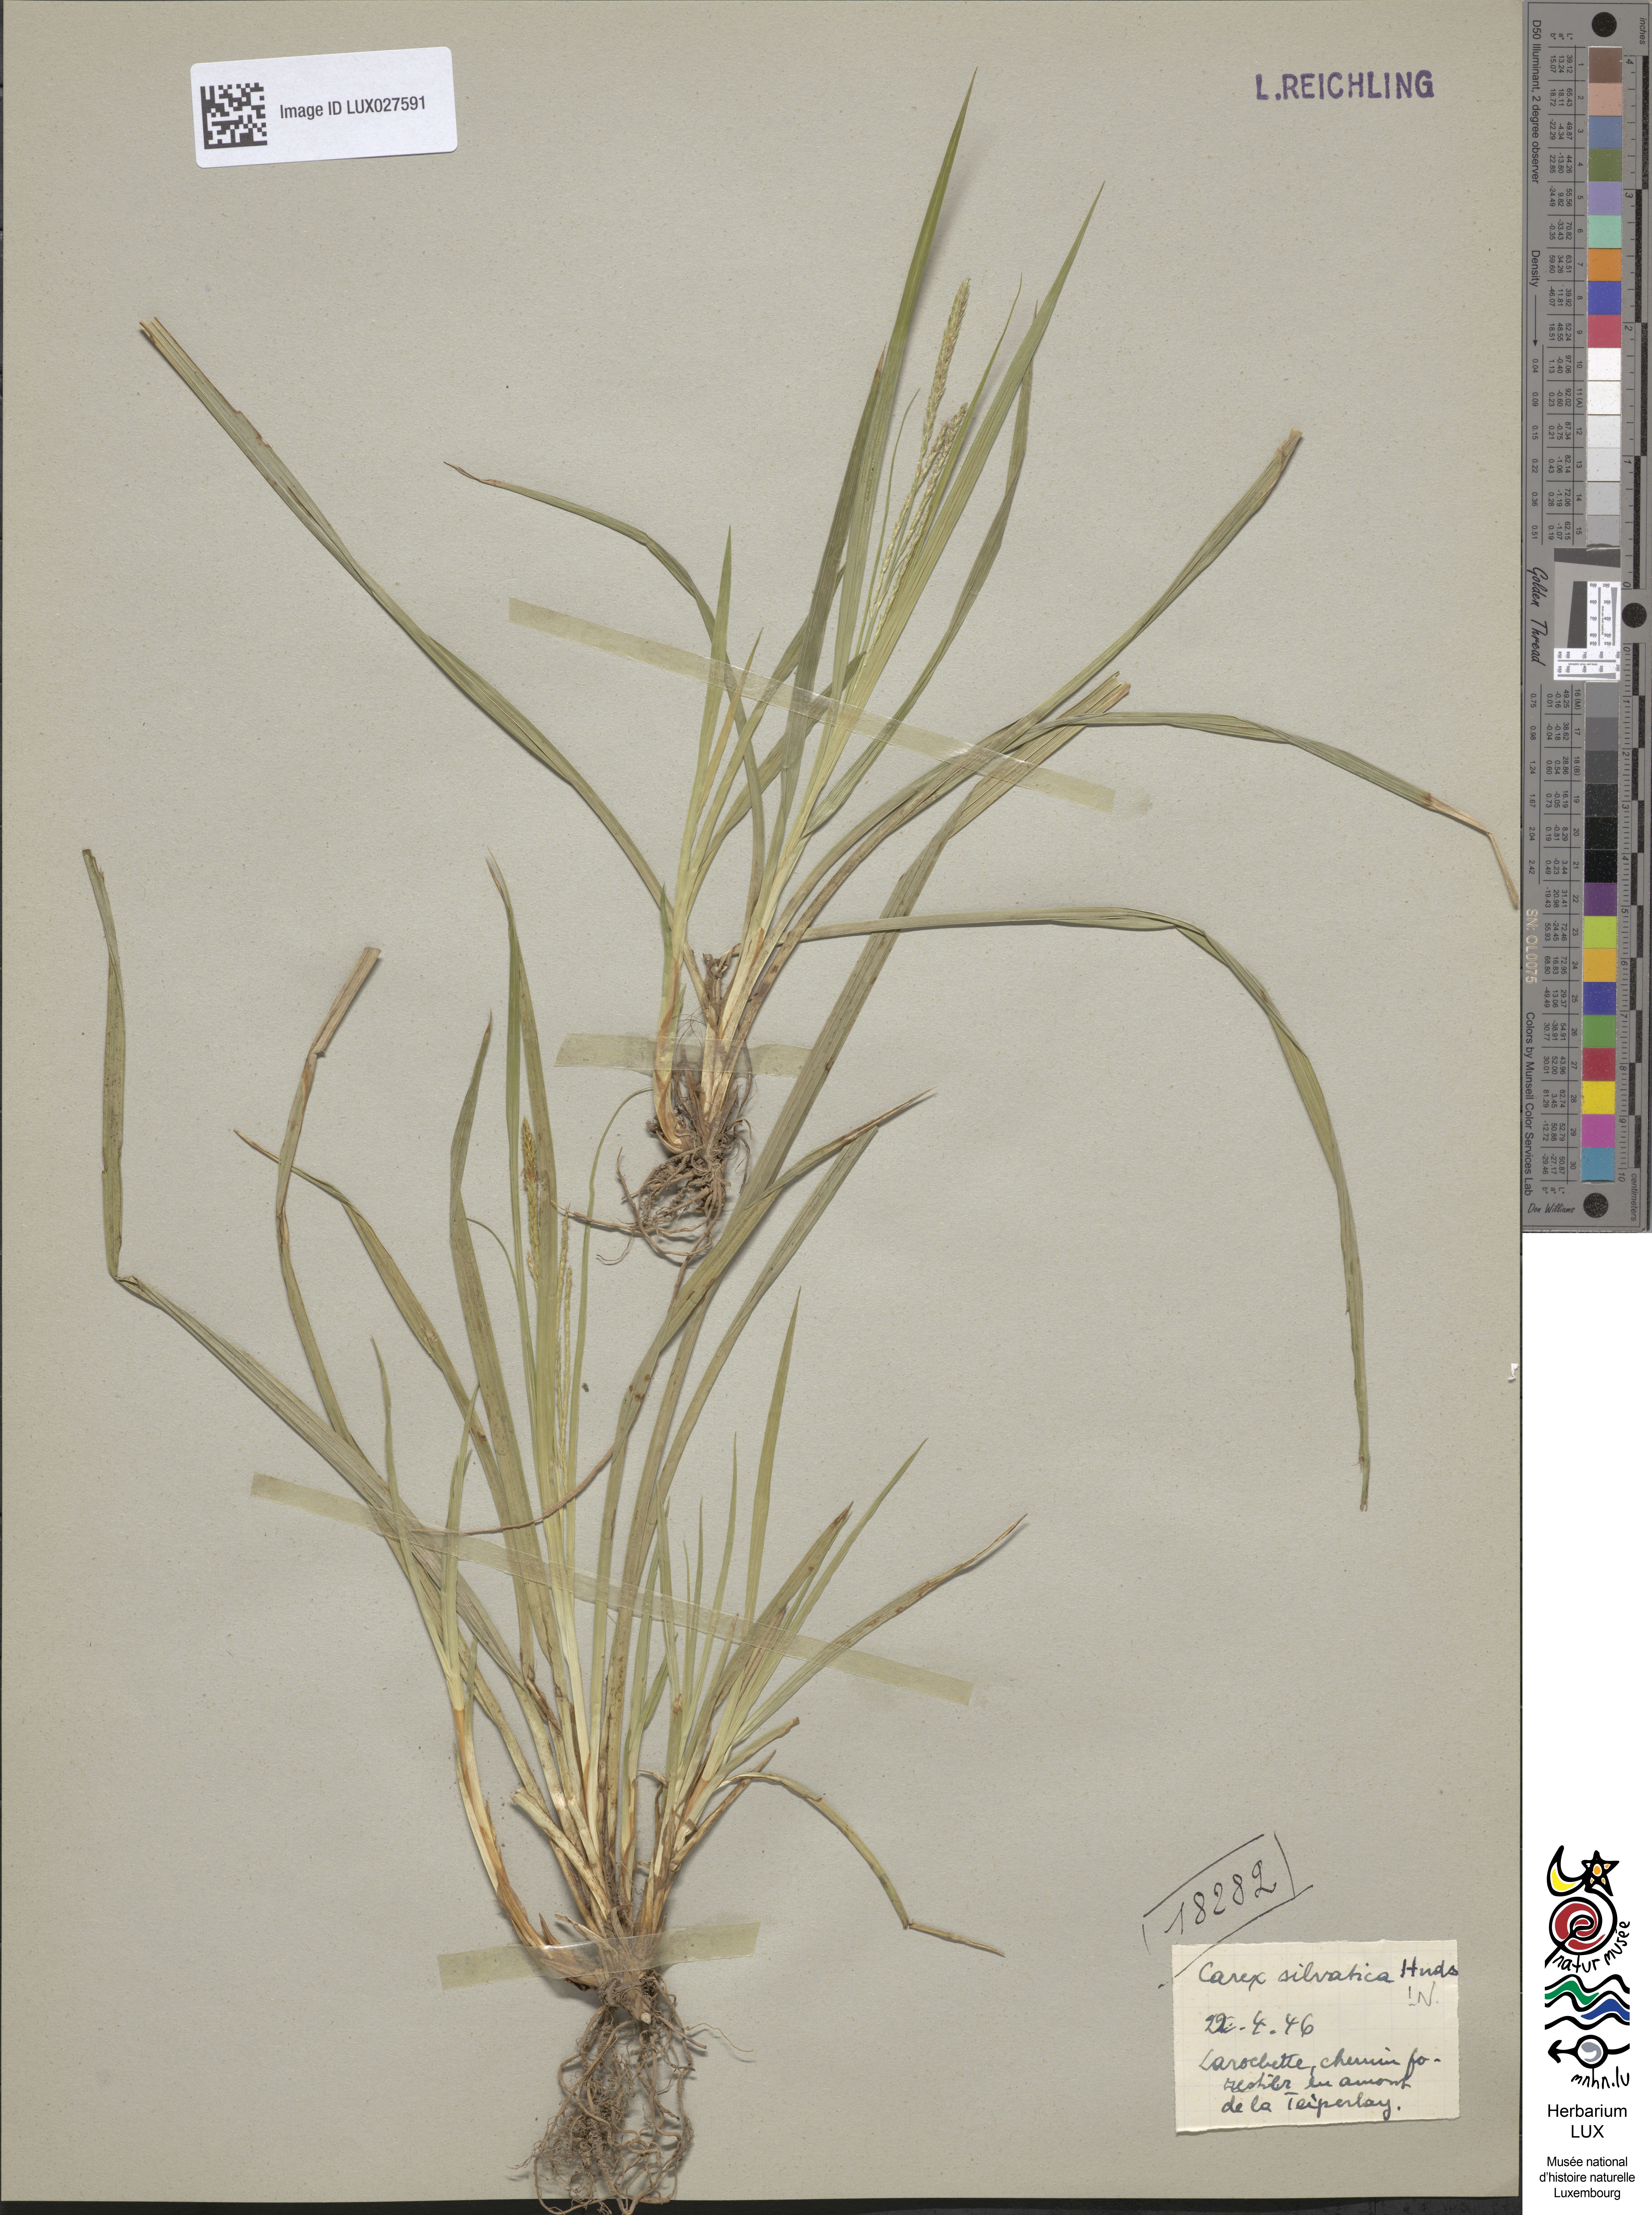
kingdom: Plantae
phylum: Tracheophyta
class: Liliopsida
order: Poales
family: Cyperaceae
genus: Carex
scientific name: Carex sylvatica
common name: Wood-sedge
